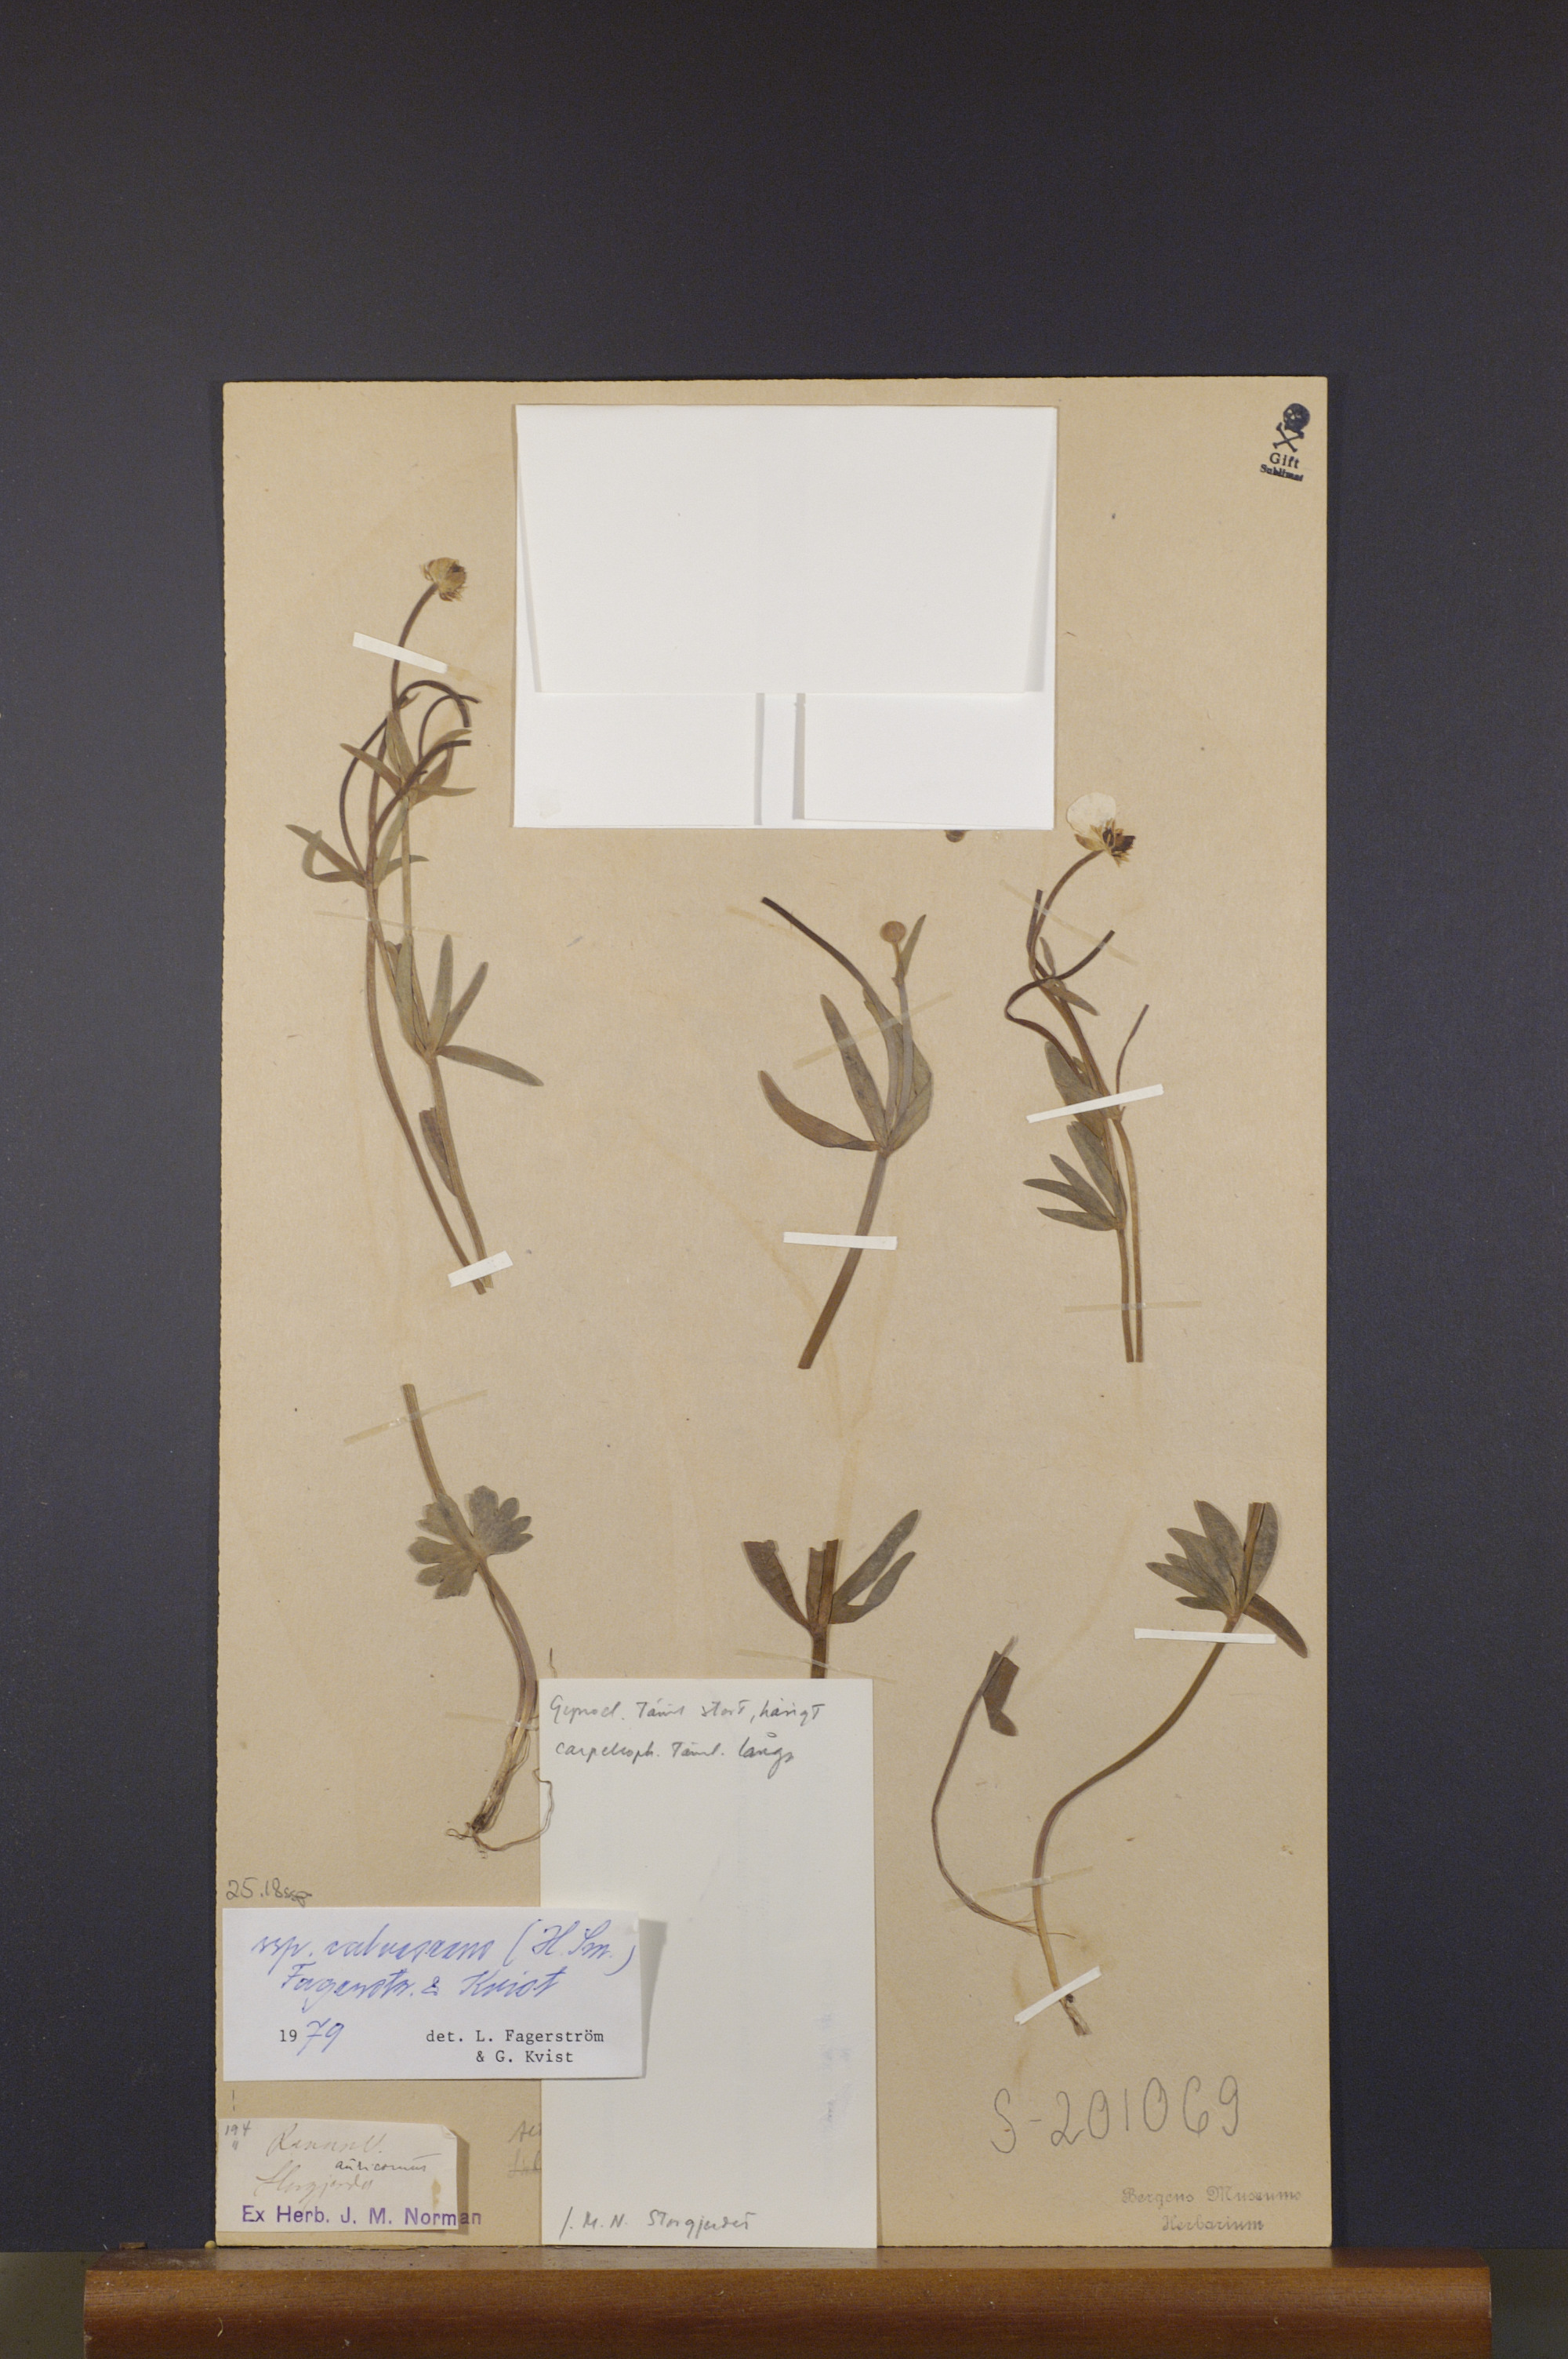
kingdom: Plantae
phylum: Tracheophyta
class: Magnoliopsida
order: Ranunculales
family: Ranunculaceae
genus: Ranunculus
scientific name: Ranunculus calvescens
